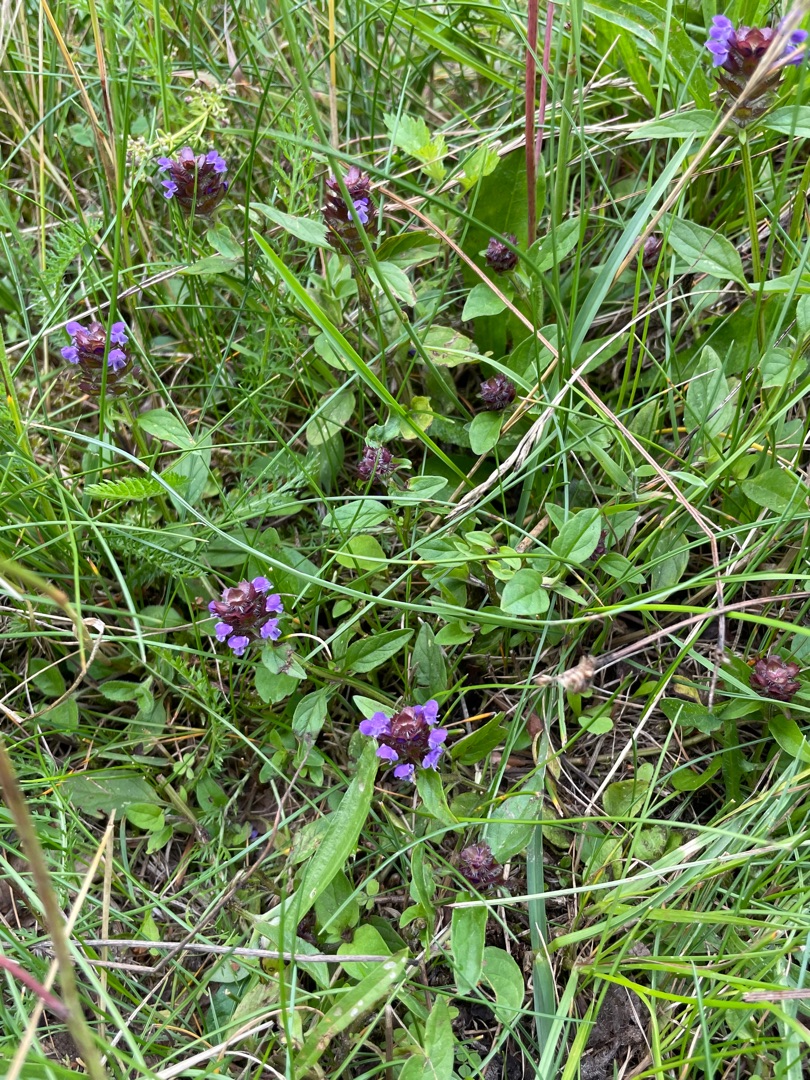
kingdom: Plantae
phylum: Tracheophyta
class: Magnoliopsida
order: Lamiales
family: Lamiaceae
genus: Prunella
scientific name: Prunella vulgaris
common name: Almindelig brunelle
